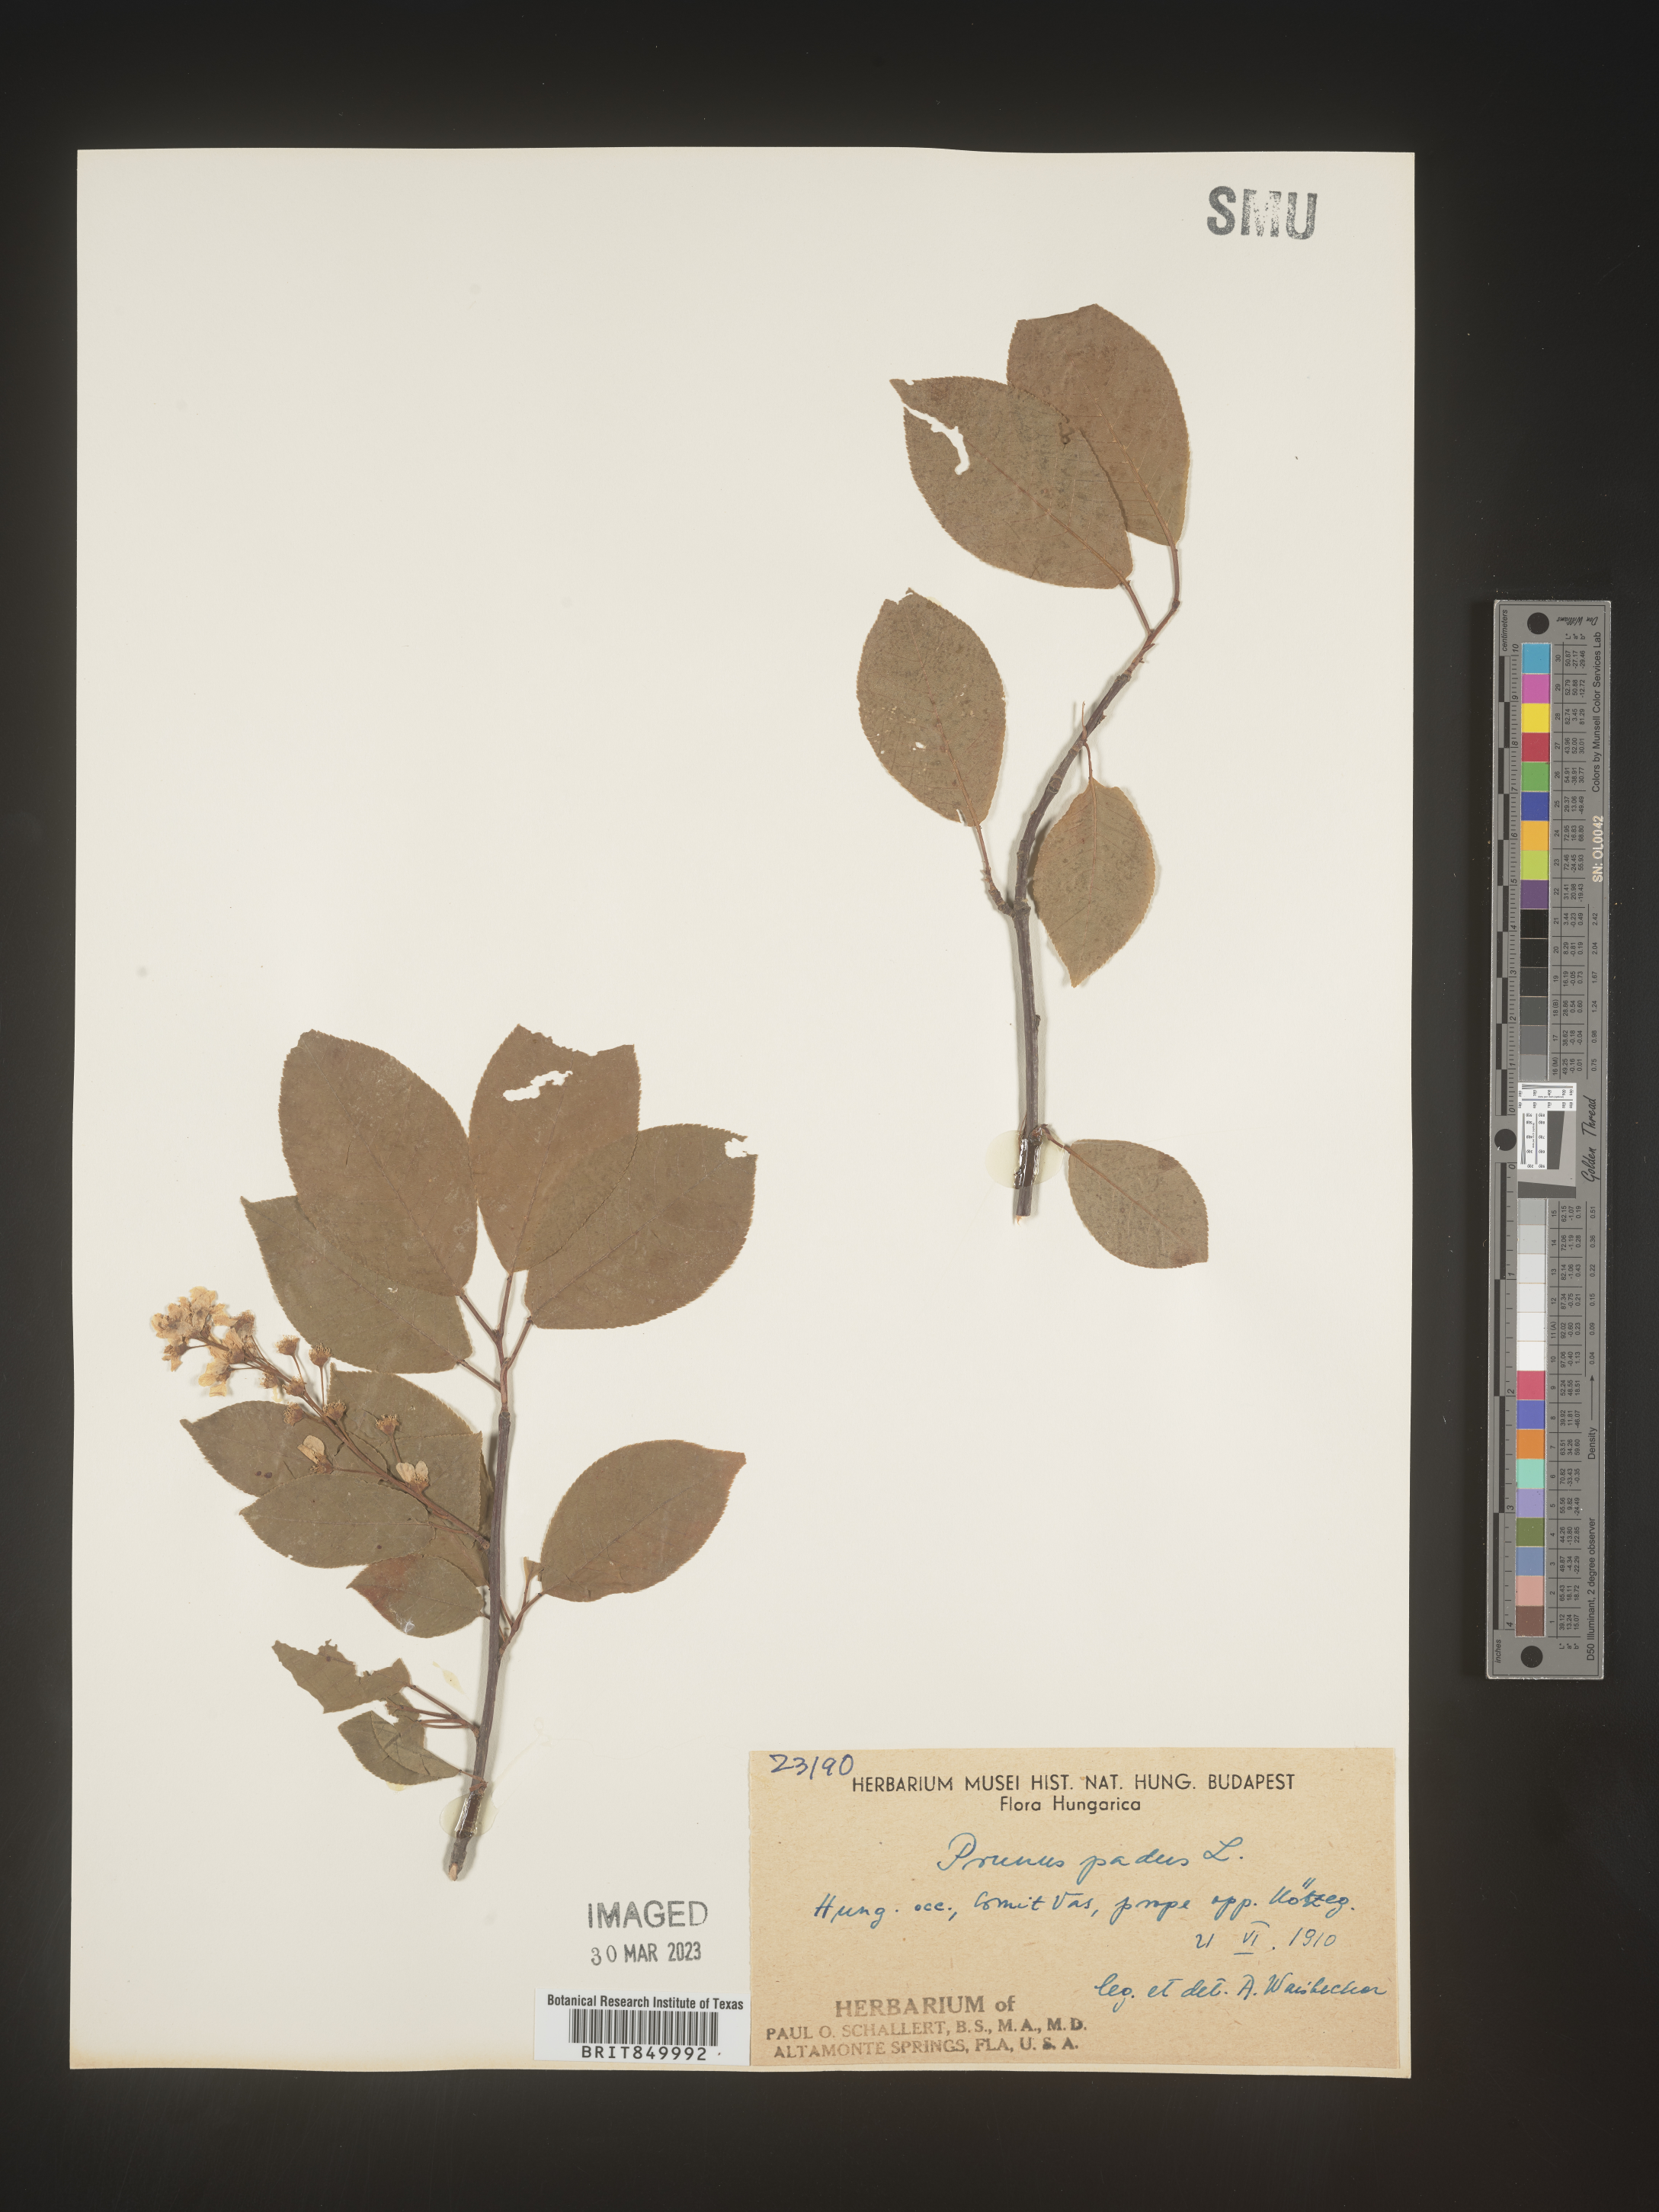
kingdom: Plantae
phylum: Tracheophyta
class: Magnoliopsida
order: Rosales
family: Rosaceae
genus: Prunus
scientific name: Prunus
